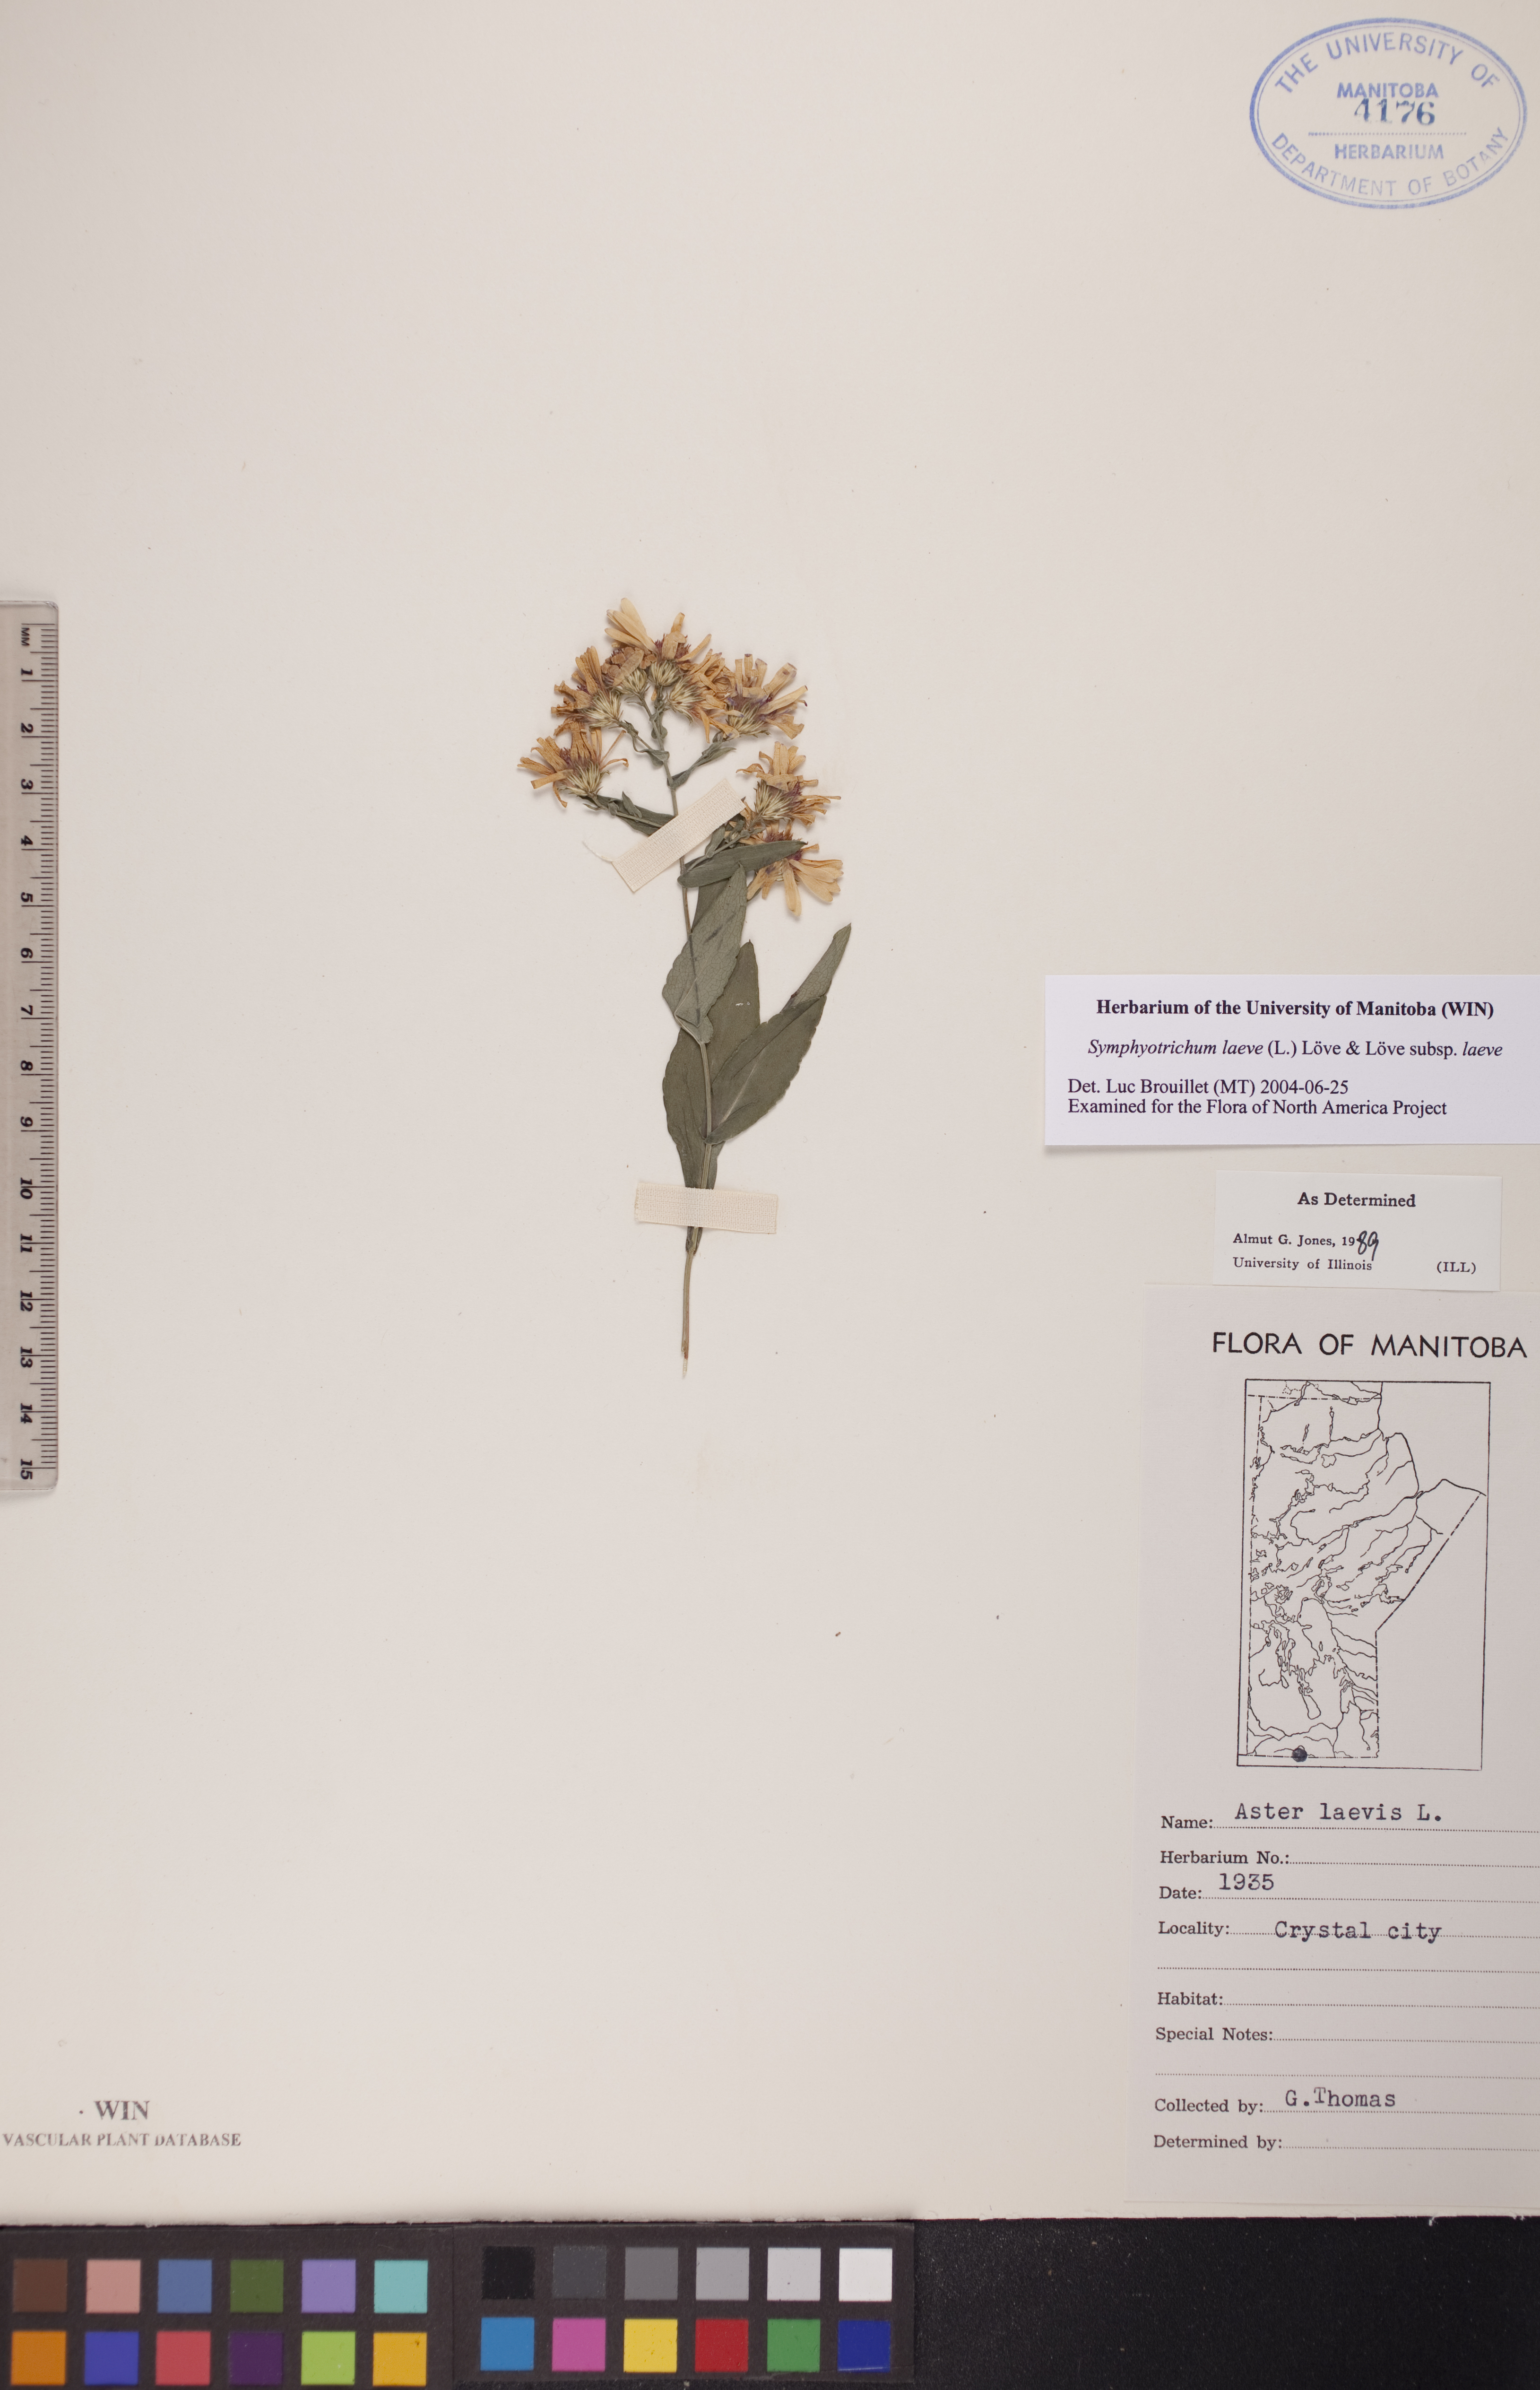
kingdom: Plantae
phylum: Tracheophyta
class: Magnoliopsida
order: Asterales
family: Asteraceae
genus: Symphyotrichum
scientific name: Symphyotrichum laeve
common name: Glaucous aster
